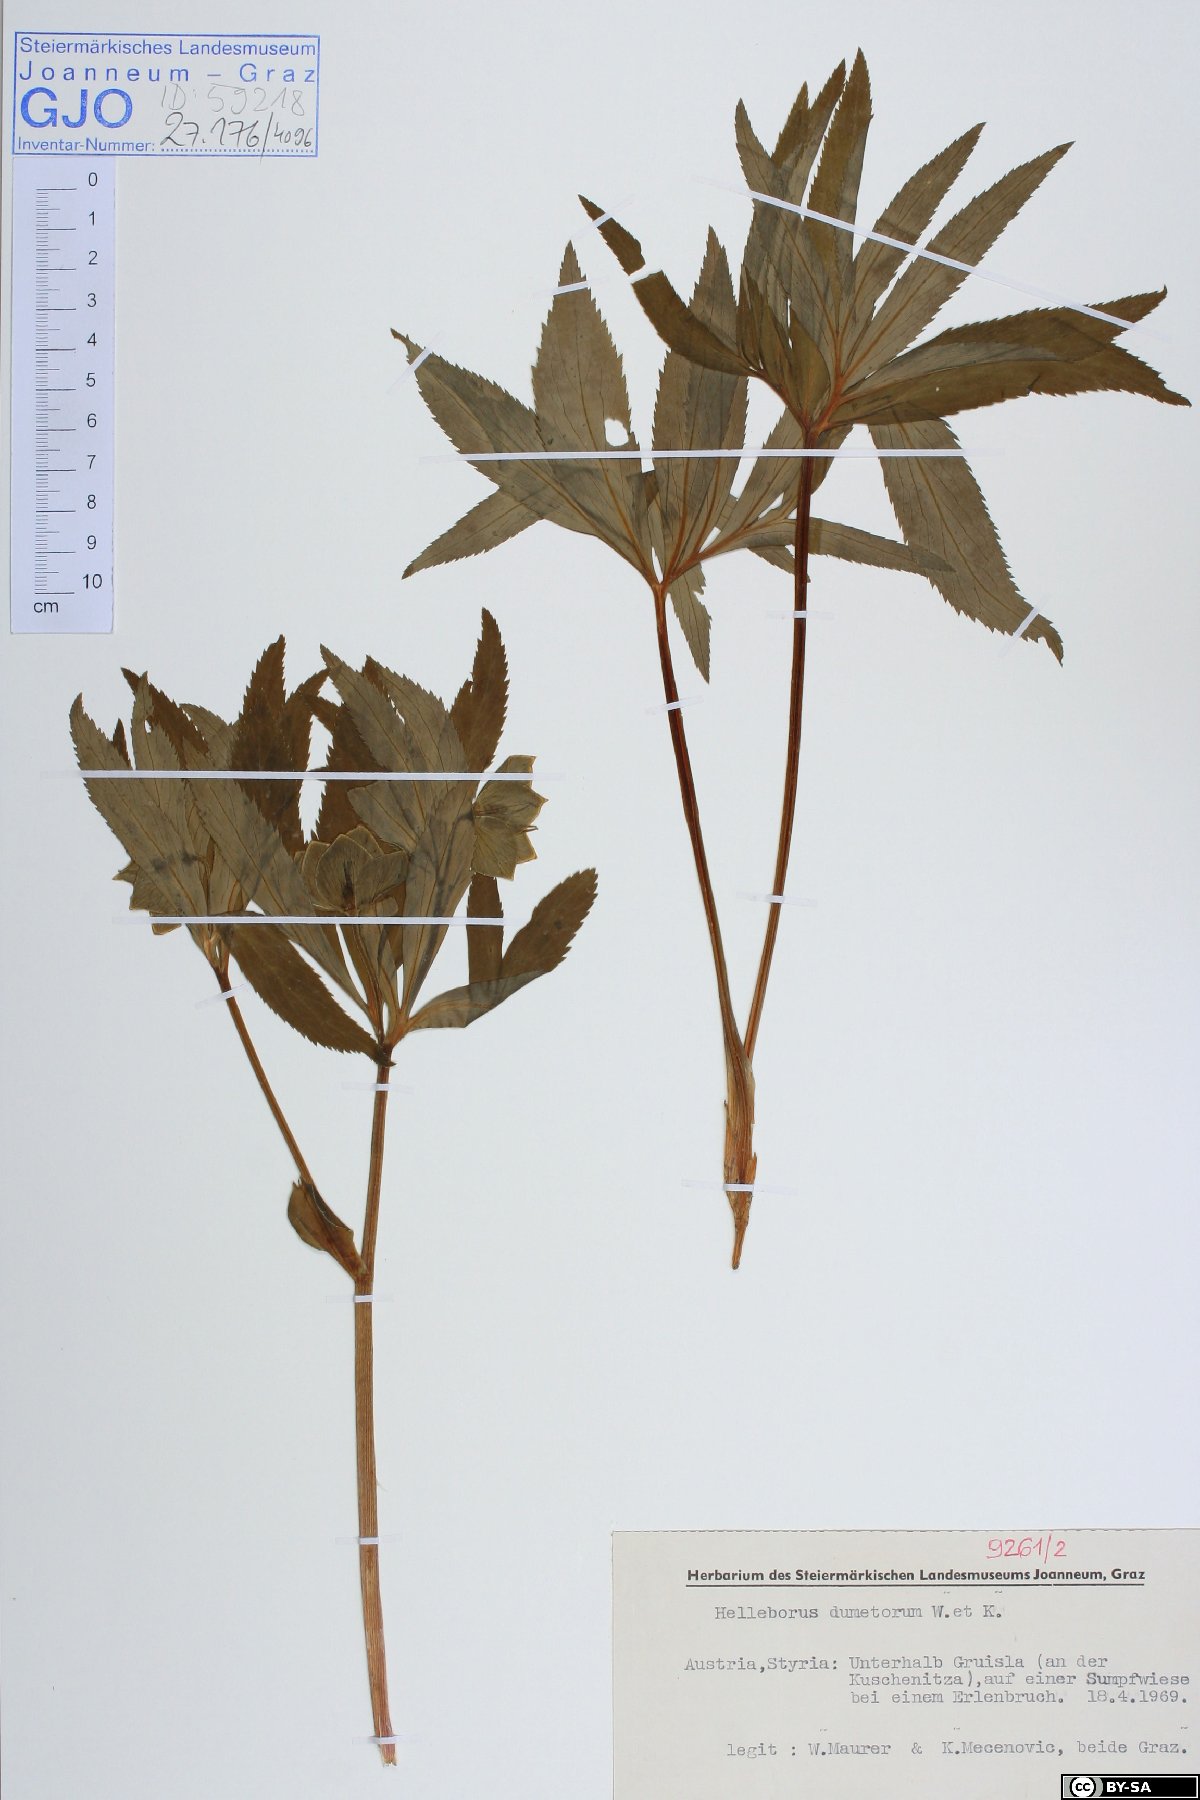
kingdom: Plantae
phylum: Tracheophyta
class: Magnoliopsida
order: Ranunculales
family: Ranunculaceae
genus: Helleborus
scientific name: Helleborus dumetorum
